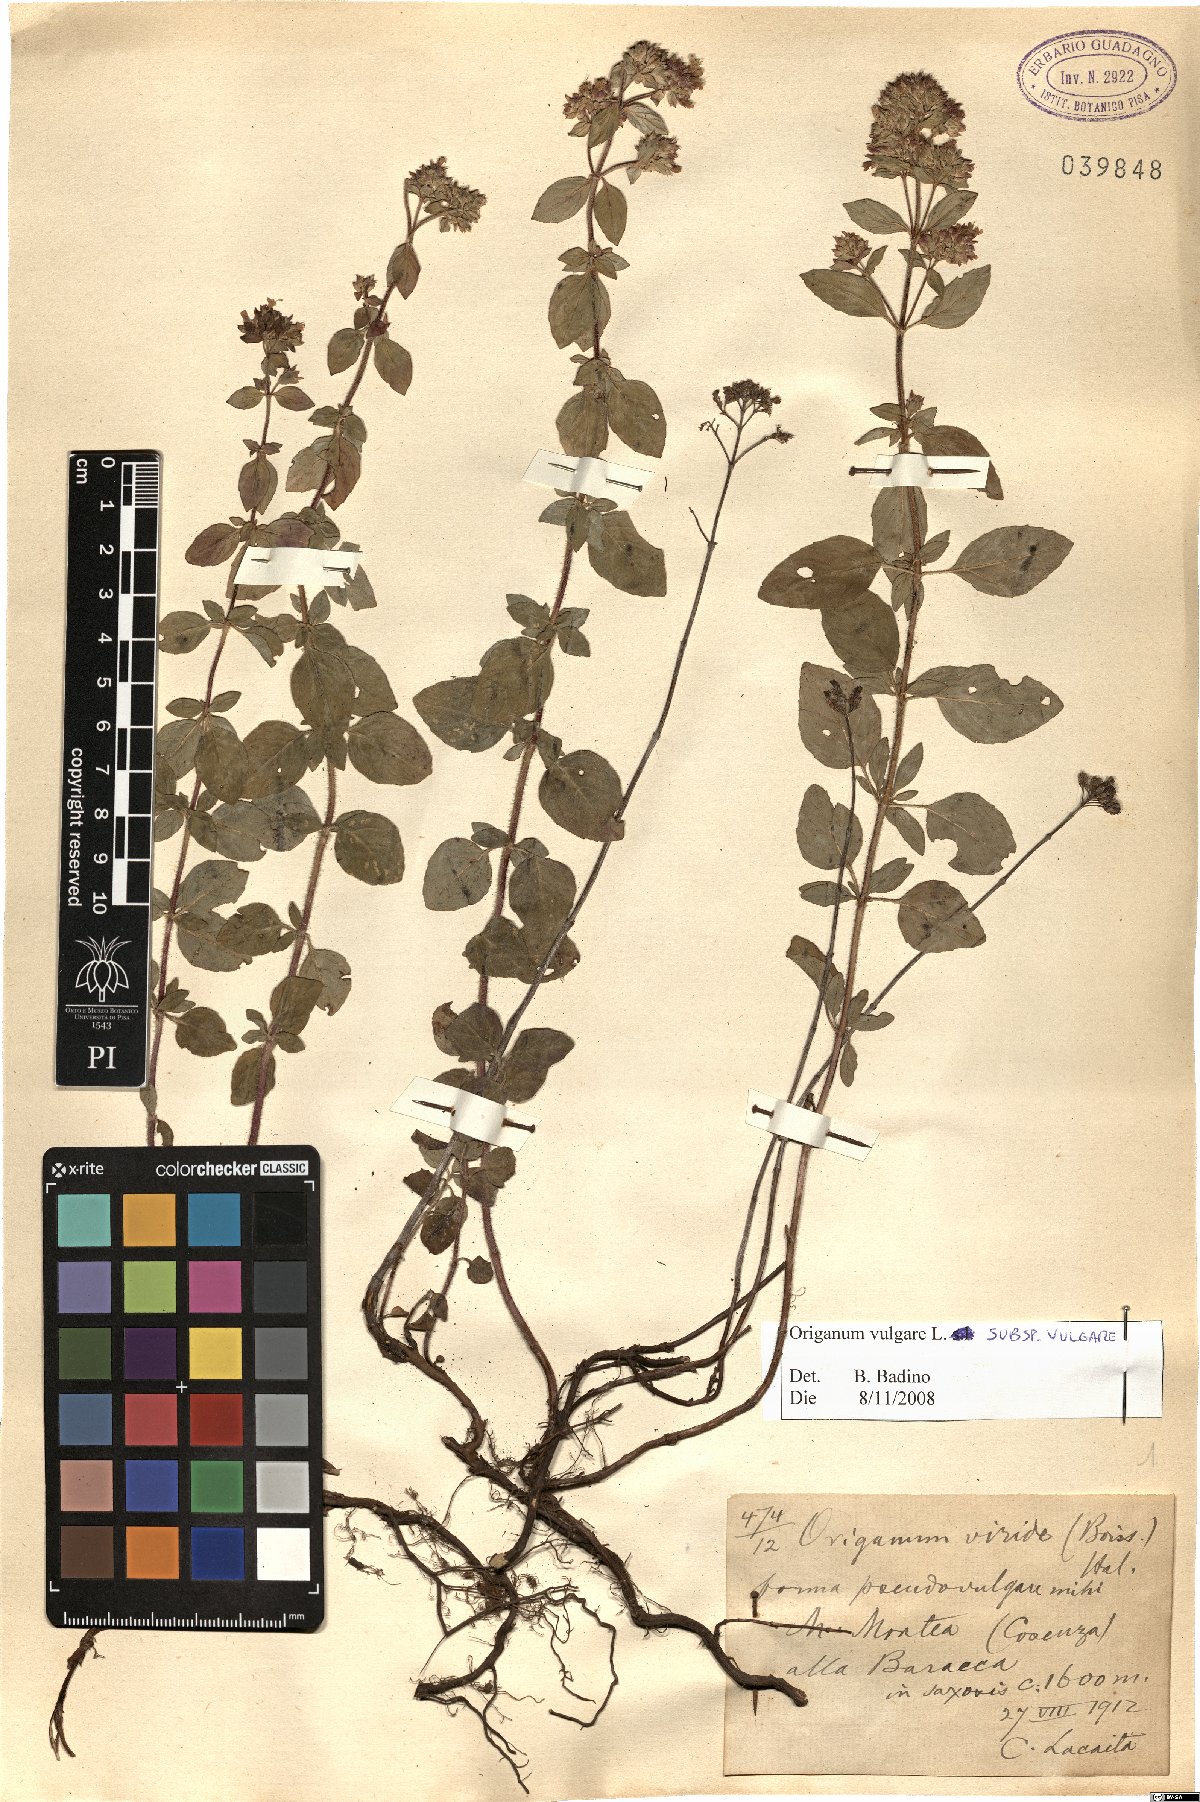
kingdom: Plantae
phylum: Tracheophyta
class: Magnoliopsida
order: Lamiales
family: Lamiaceae
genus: Origanum
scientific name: Origanum vulgare
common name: Wild marjoram
